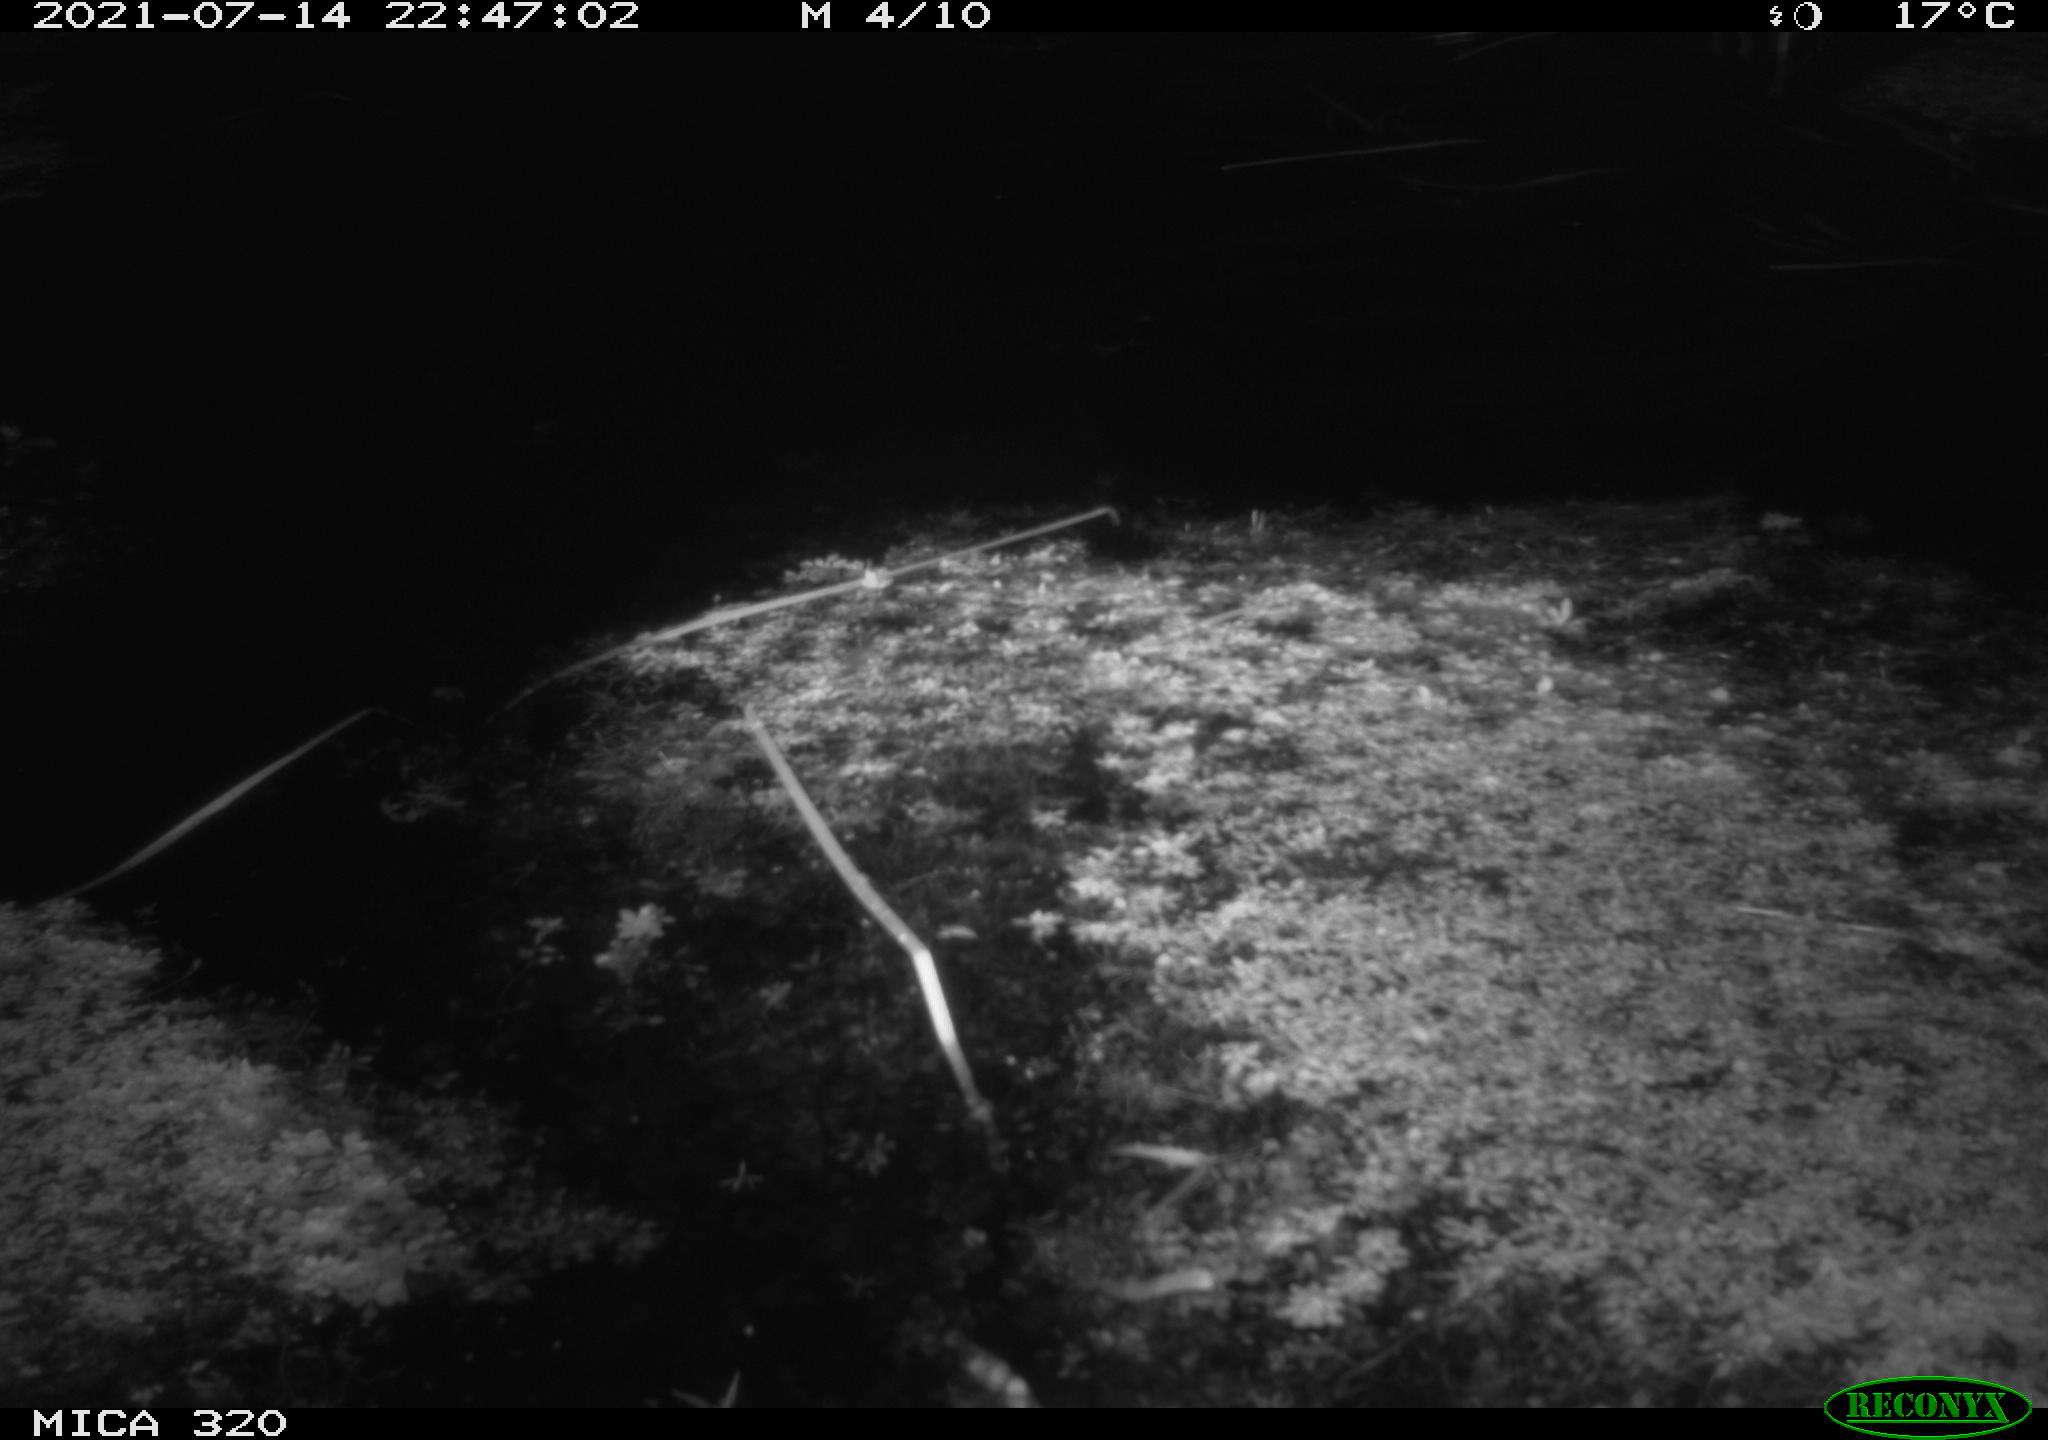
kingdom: Animalia
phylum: Chordata
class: Aves
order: Anseriformes
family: Anatidae
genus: Anas
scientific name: Anas platyrhynchos
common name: Mallard
